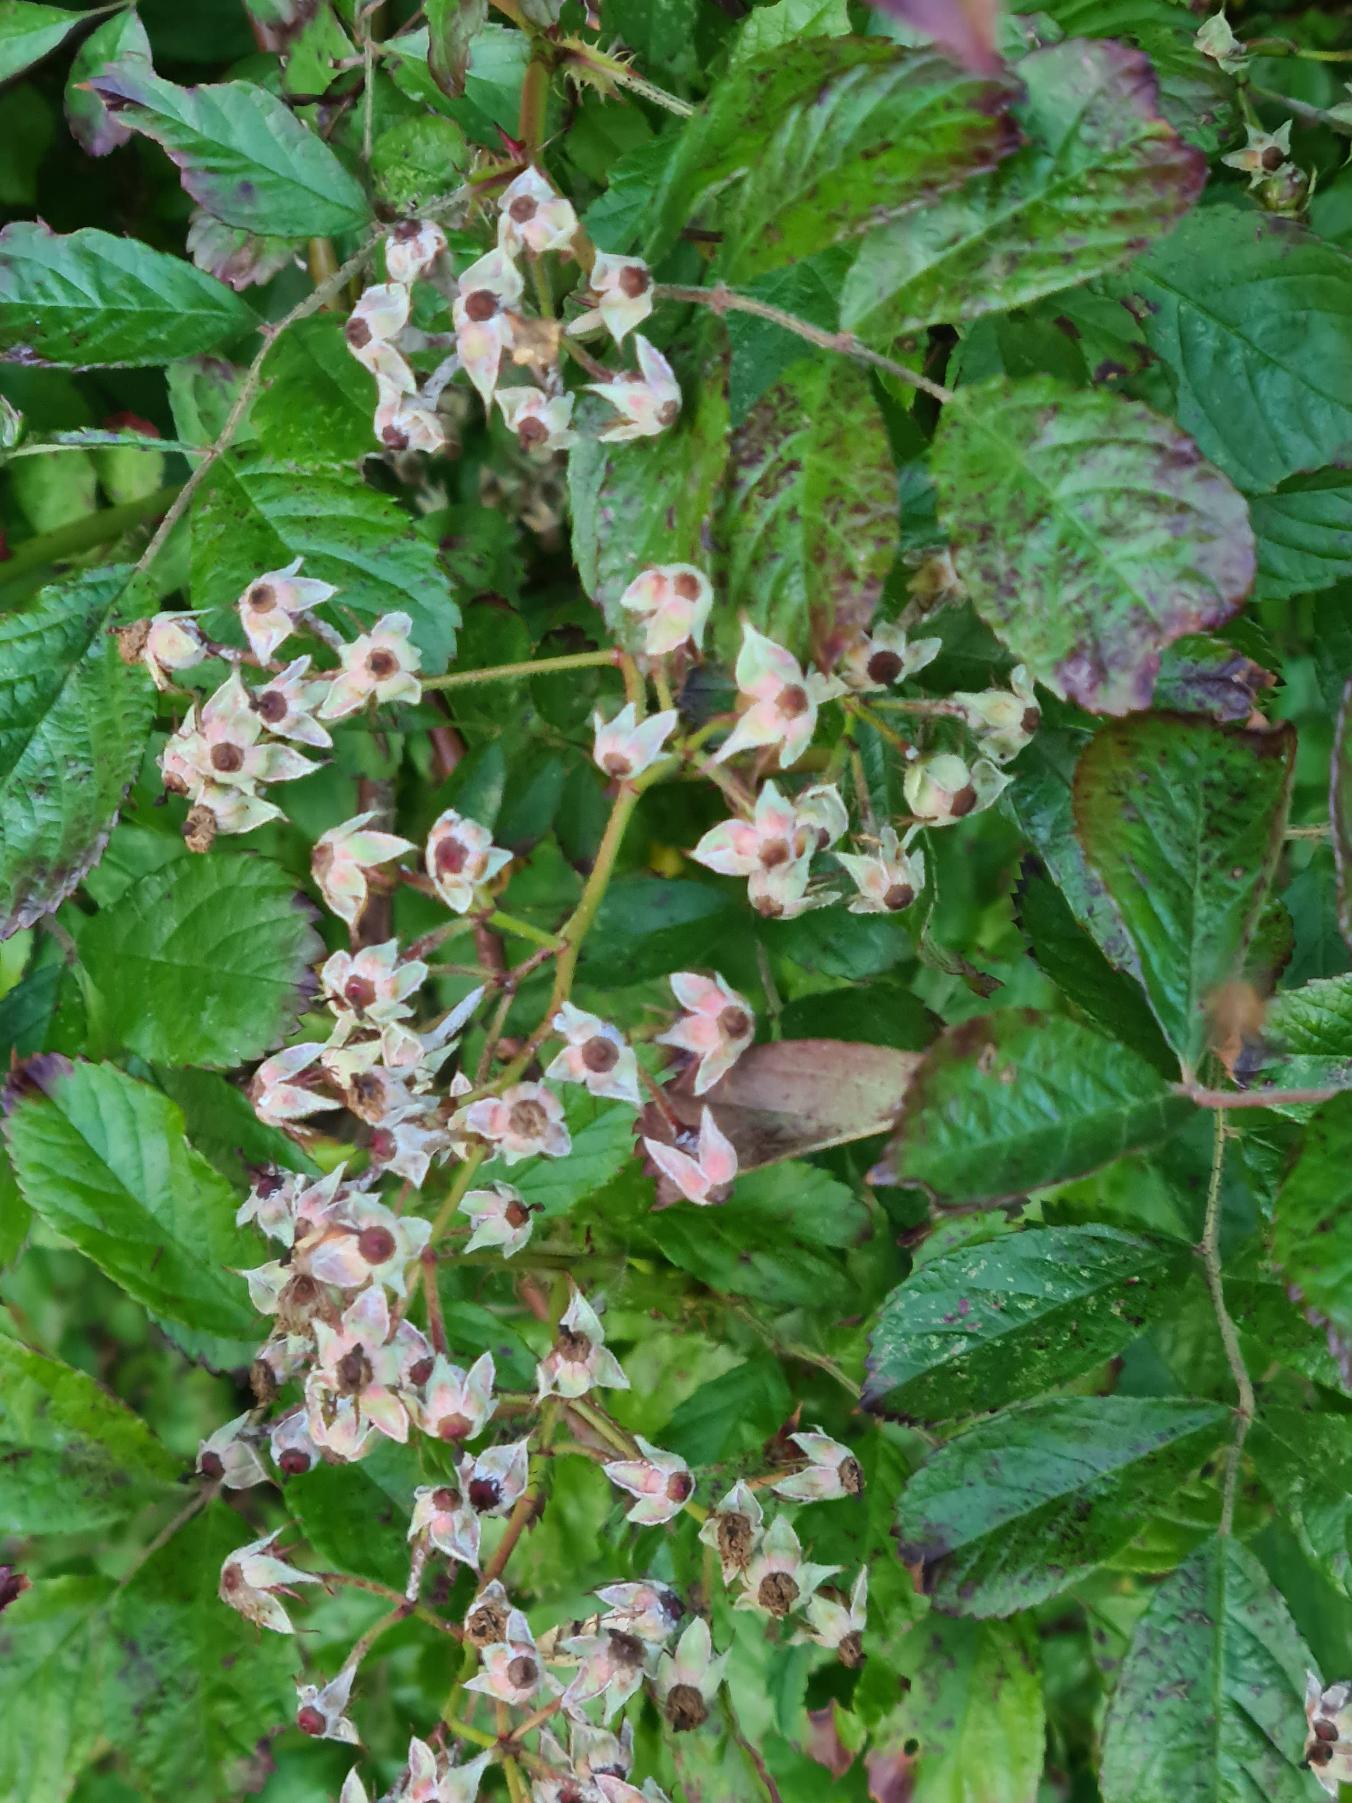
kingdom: Plantae
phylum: Tracheophyta
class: Magnoliopsida
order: Rosales
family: Rosaceae
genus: Rosa
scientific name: Rosa multiflora
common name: Mangeblomstret rose
